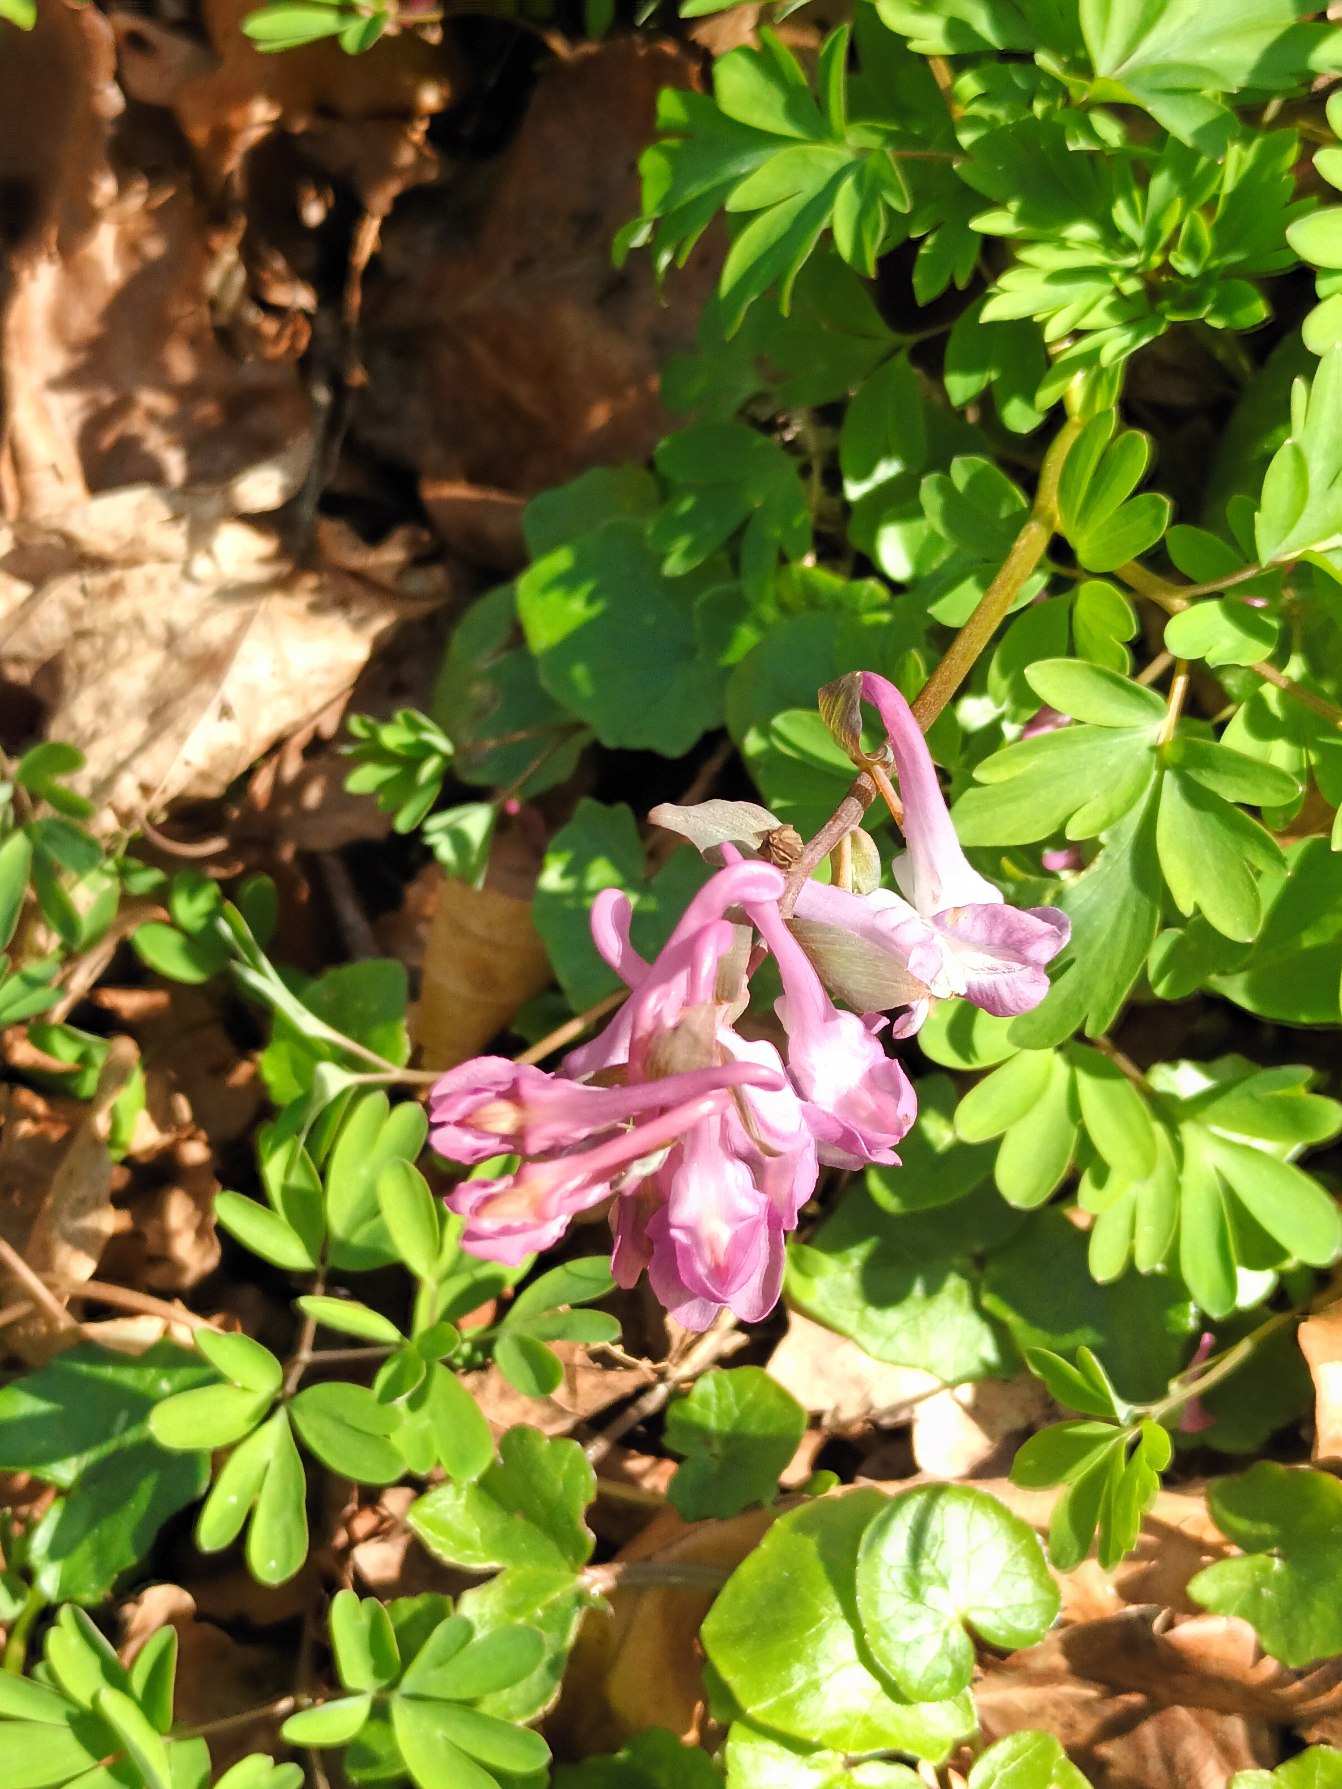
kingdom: Plantae
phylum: Tracheophyta
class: Magnoliopsida
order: Ranunculales
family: Papaveraceae
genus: Corydalis
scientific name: Corydalis cava
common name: Hulrodet lærkespore
